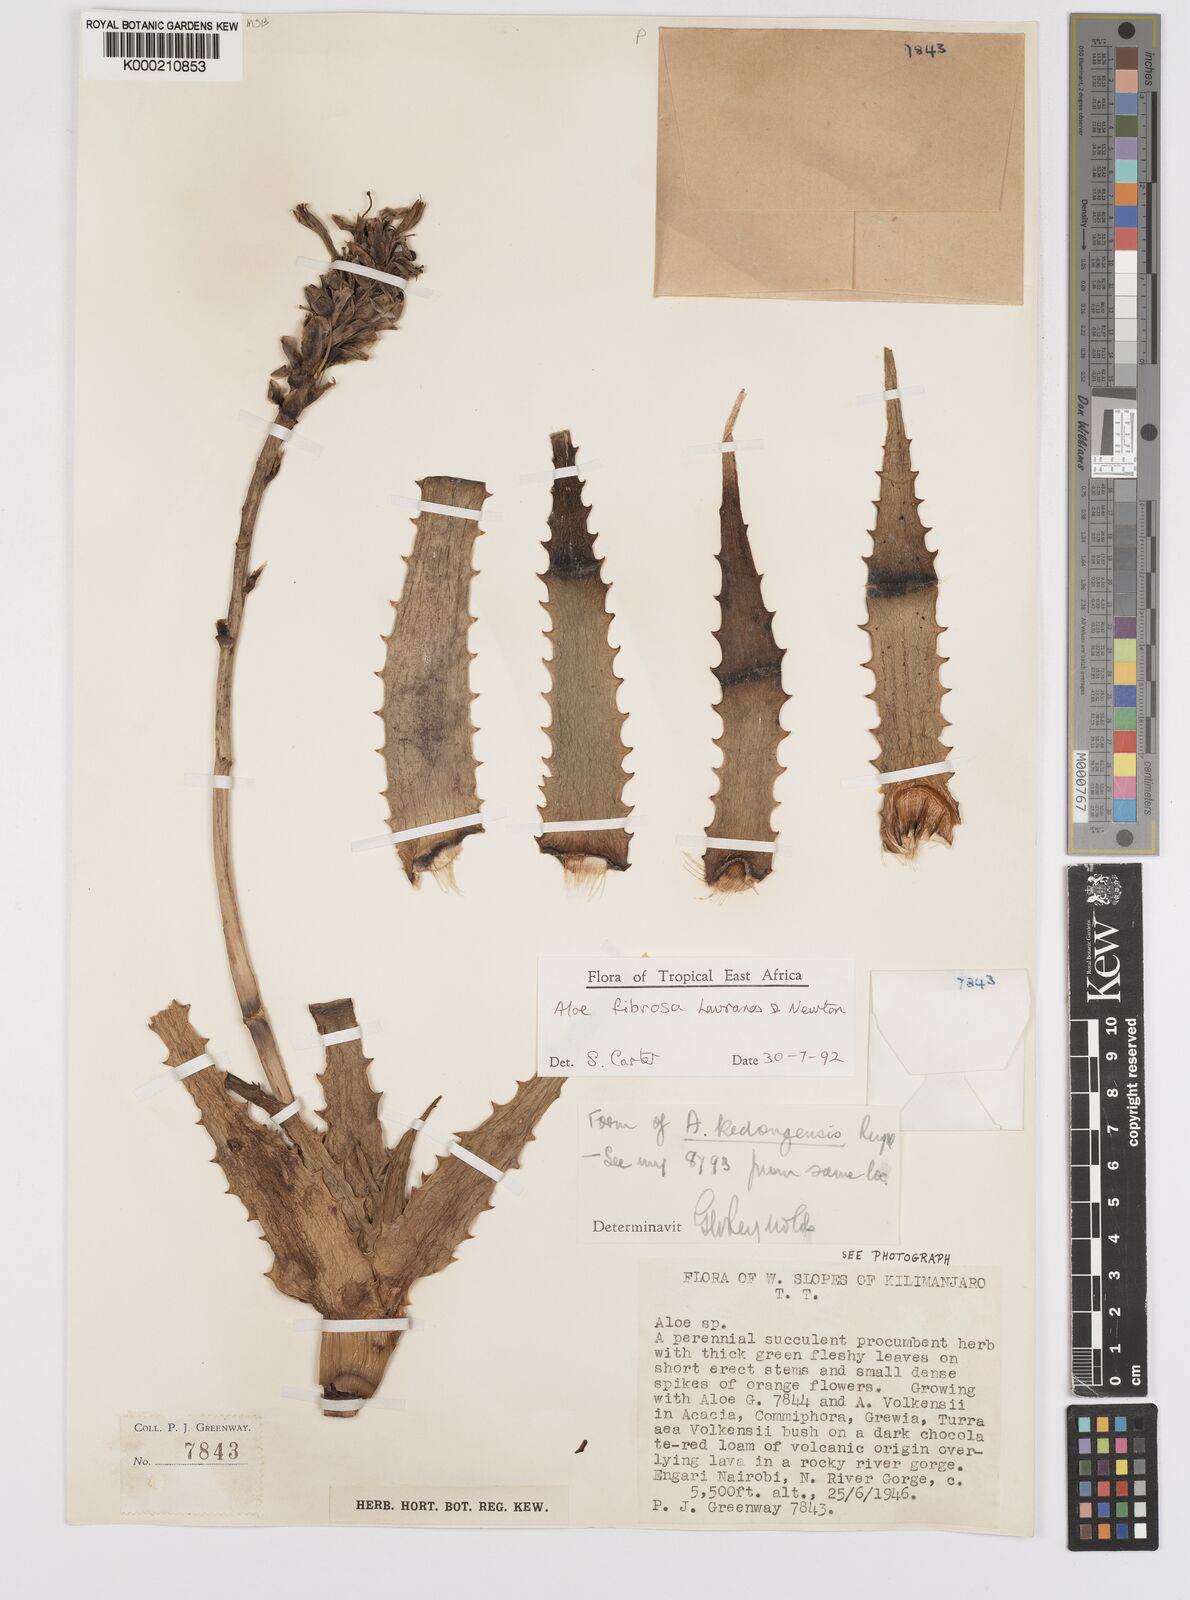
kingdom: Plantae
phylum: Tracheophyta
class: Liliopsida
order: Asparagales
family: Asphodelaceae
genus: Aloe
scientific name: Aloe fibrosa
